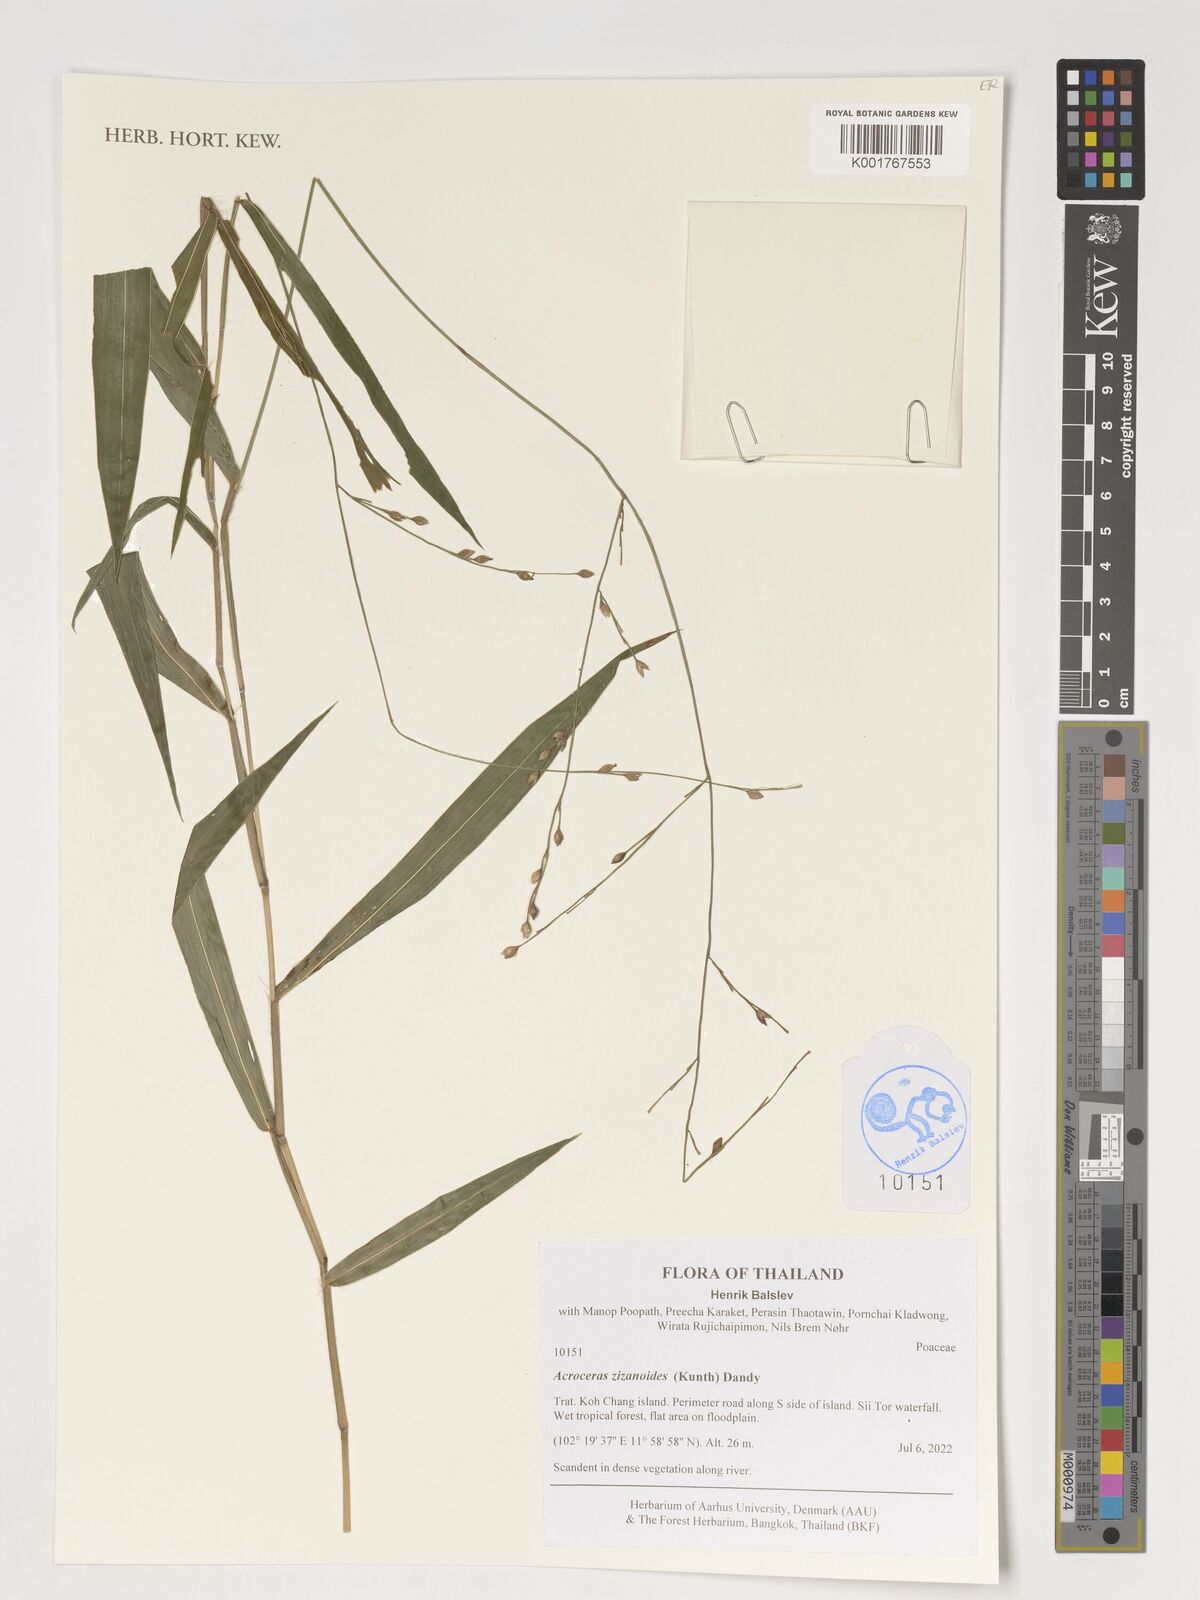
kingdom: Plantae
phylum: Tracheophyta
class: Liliopsida
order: Poales
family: Poaceae
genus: Acroceras
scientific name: Acroceras zizanioides
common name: Oat grass
